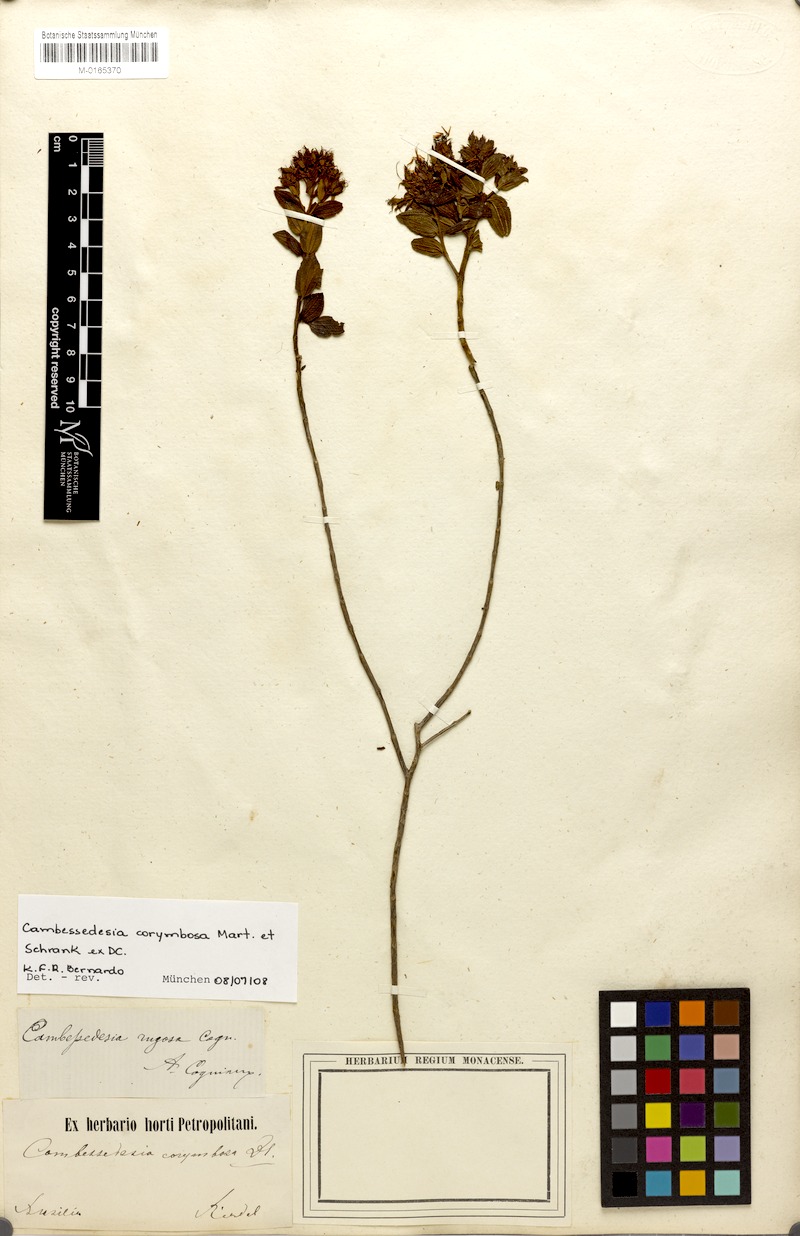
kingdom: Plantae
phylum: Tracheophyta
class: Magnoliopsida
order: Myrtales
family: Melastomataceae
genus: Cambessedesia
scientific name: Cambessedesia corymbosa
